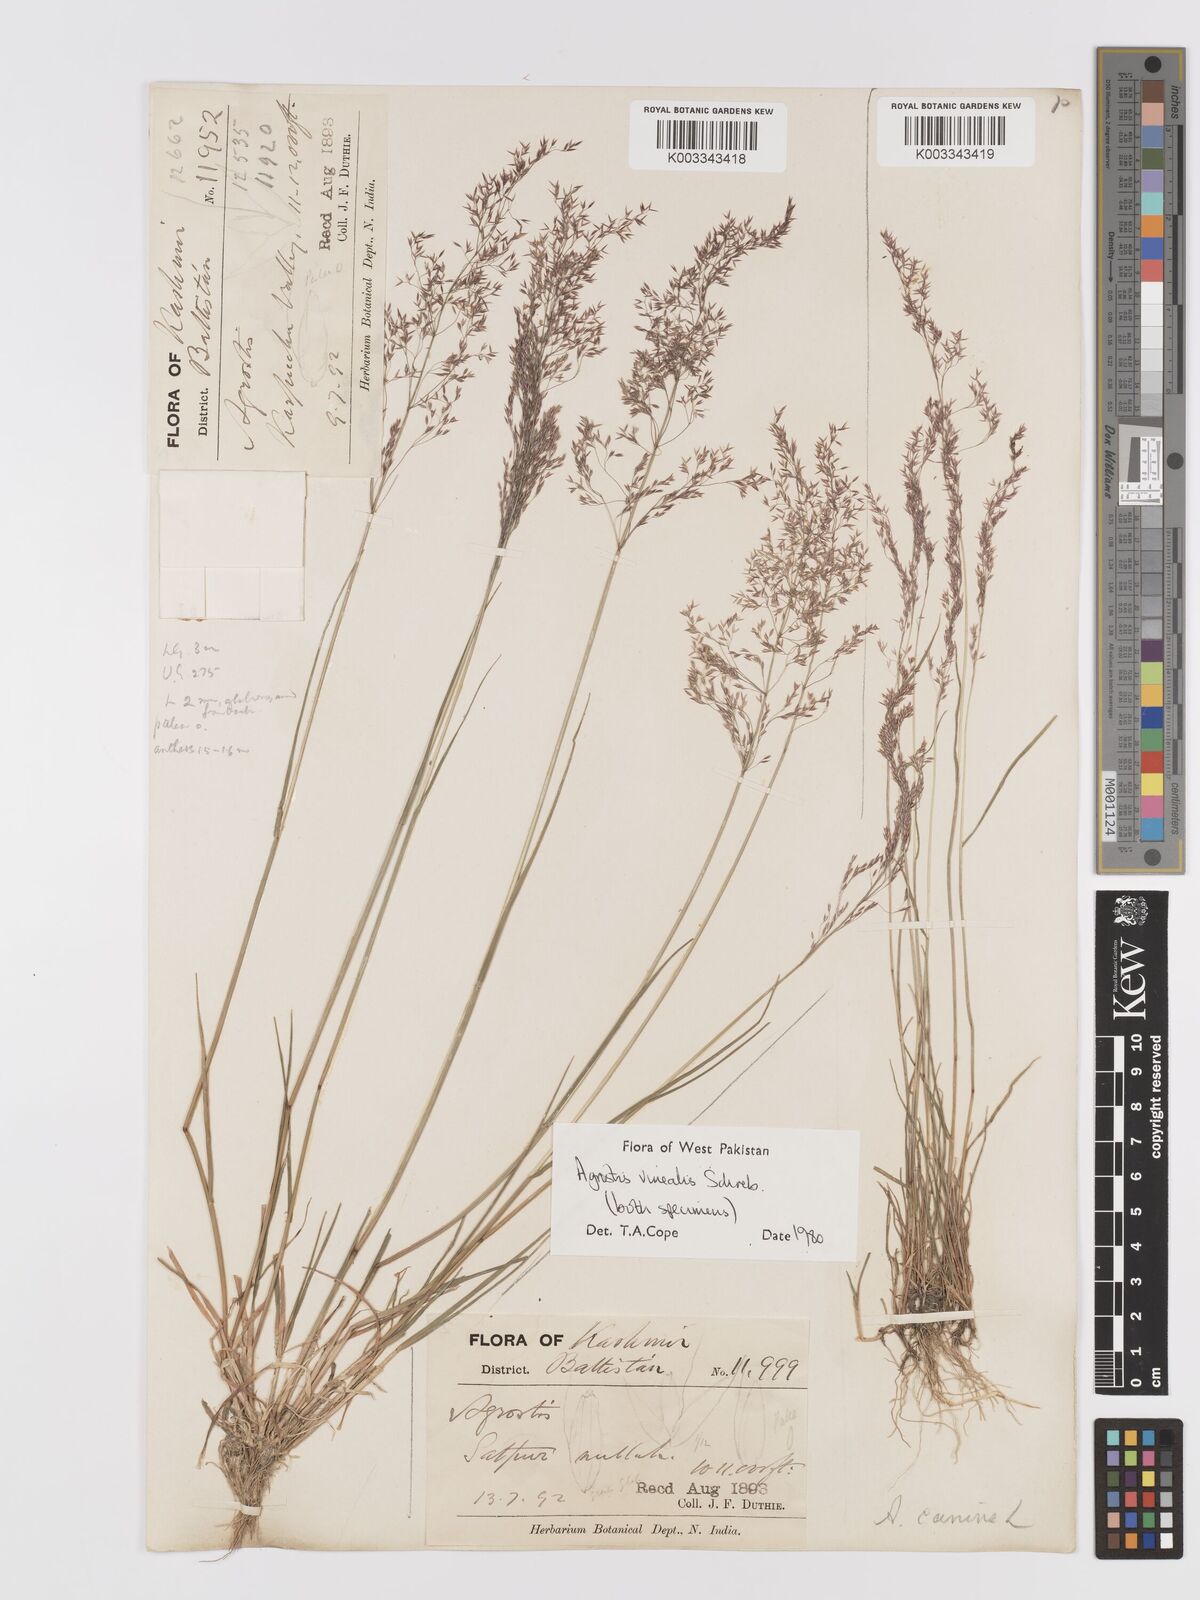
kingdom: Plantae
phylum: Tracheophyta
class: Liliopsida
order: Poales
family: Poaceae
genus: Agrostis
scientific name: Agrostis vinealis
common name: Brown bent
